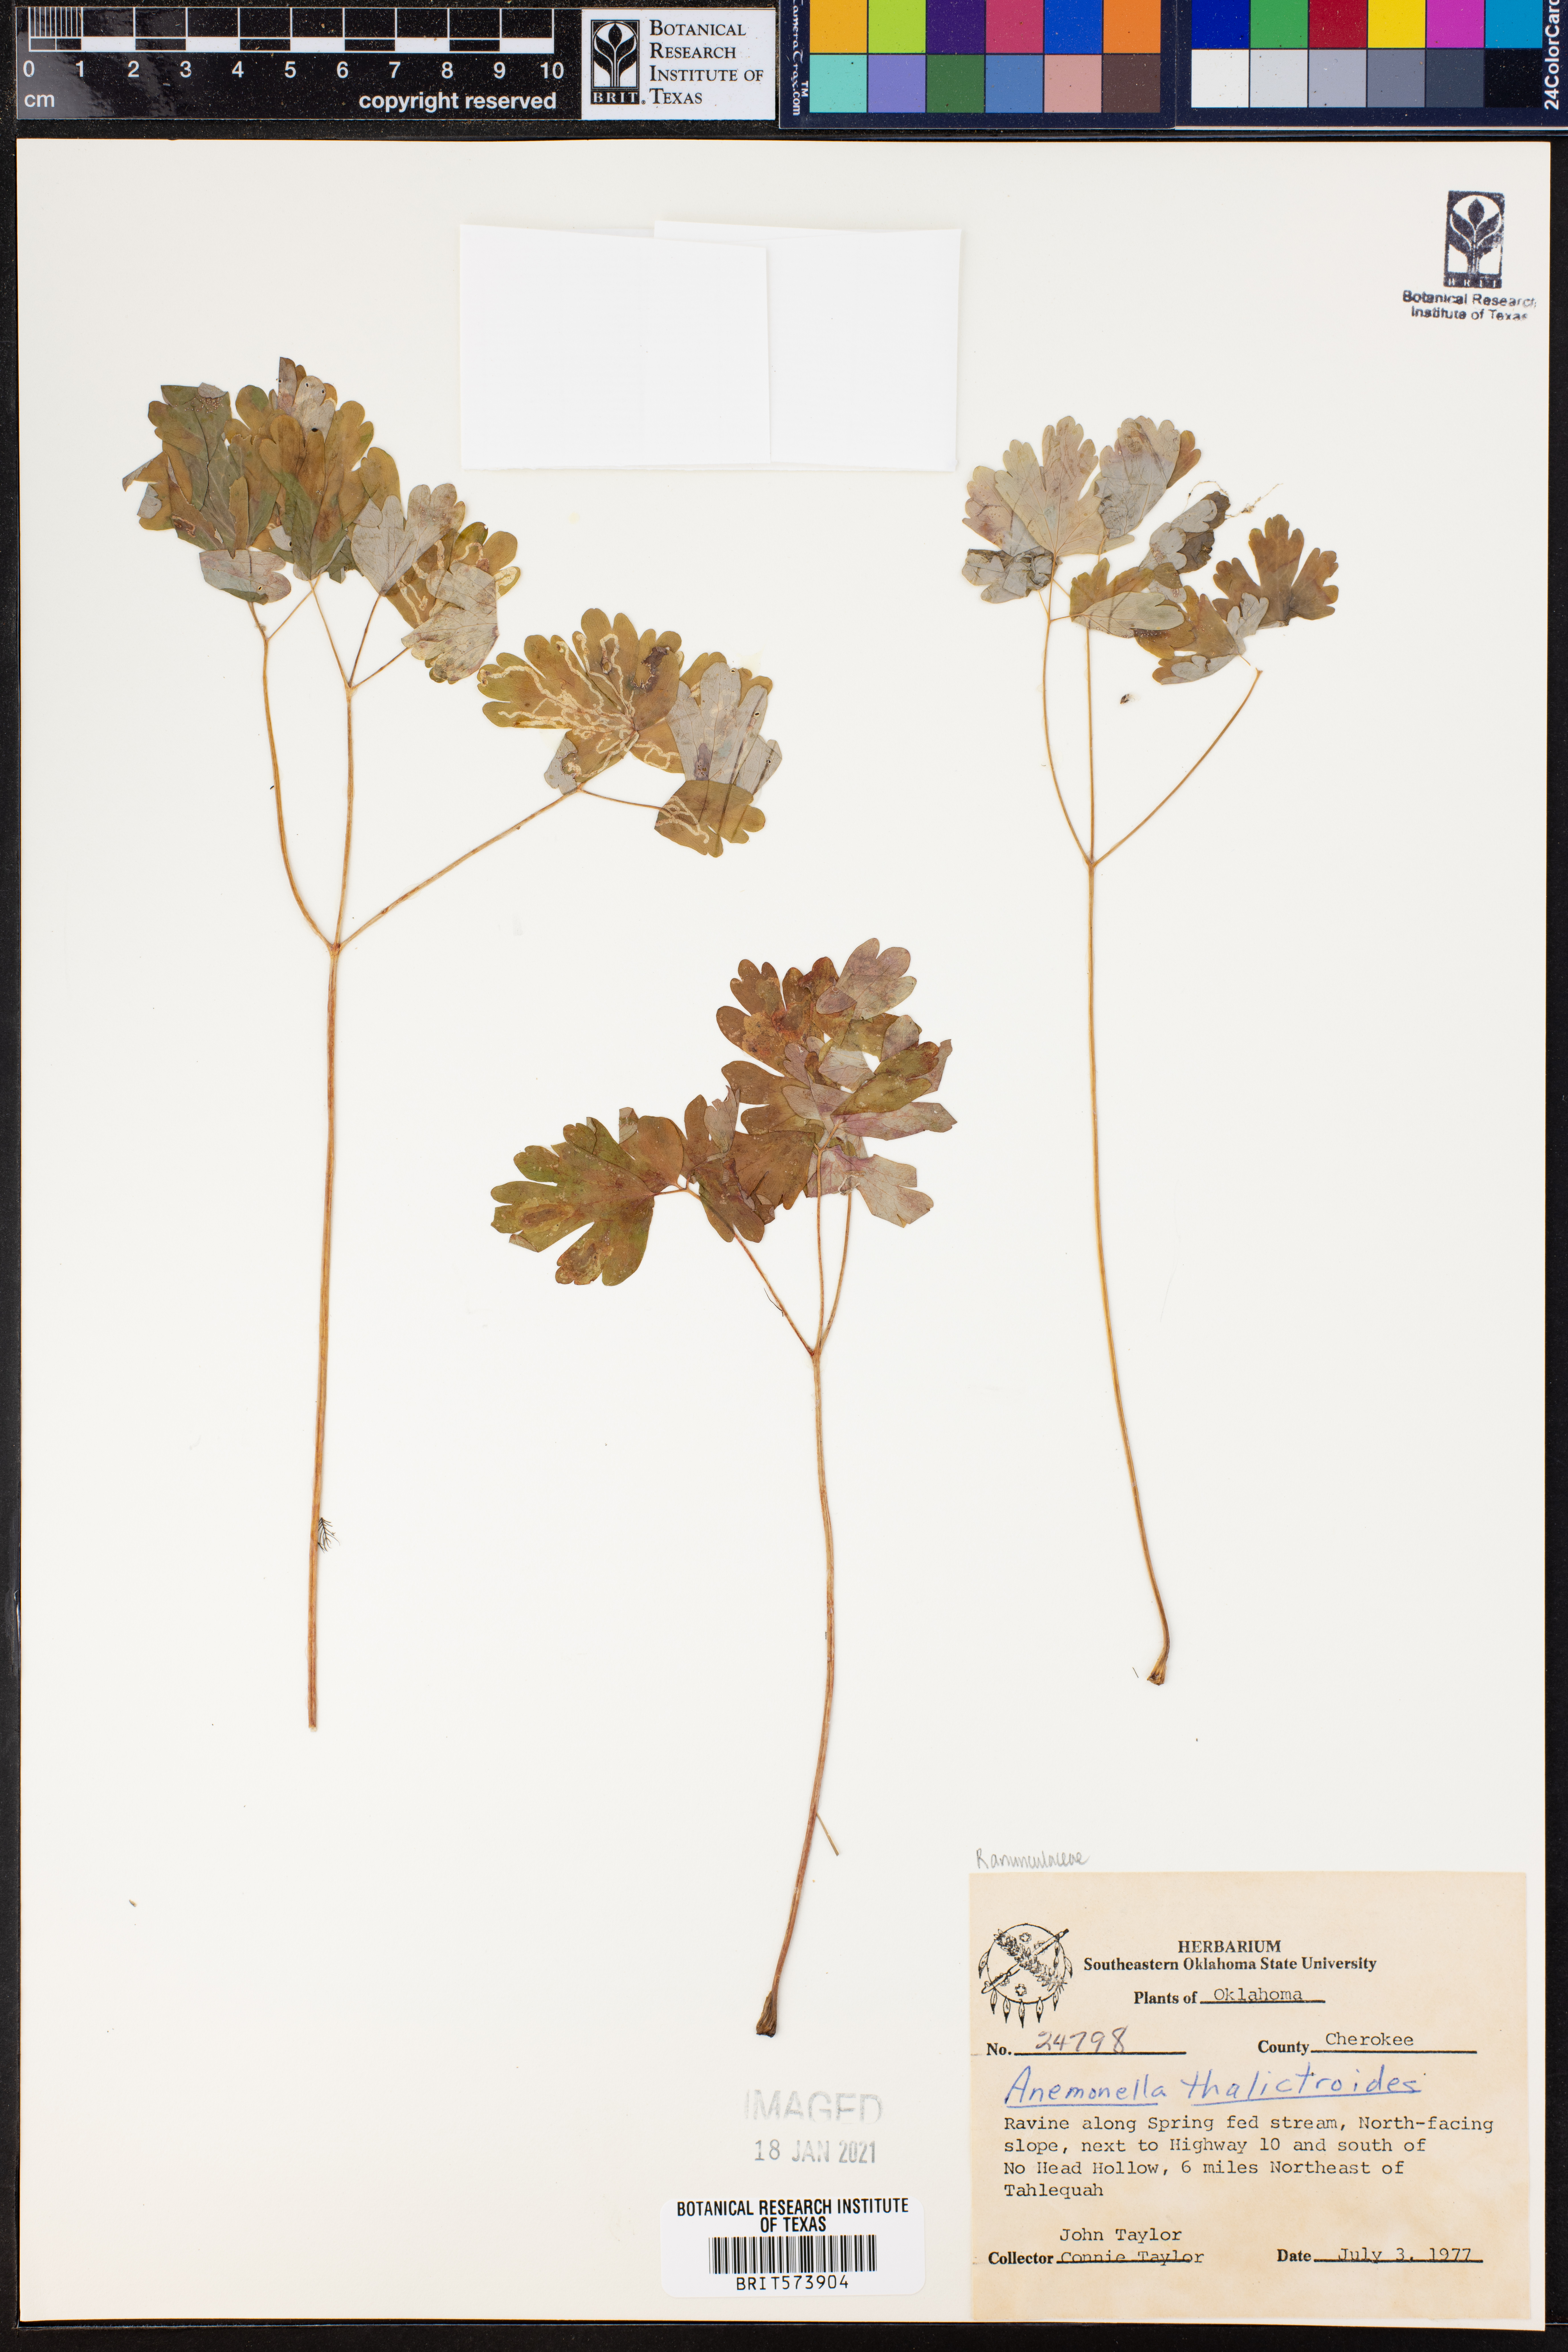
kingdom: Plantae
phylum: Tracheophyta
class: Magnoliopsida
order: Ranunculales
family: Ranunculaceae
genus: Thalictrum
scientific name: Thalictrum thalictroides
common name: Rue-anemone
